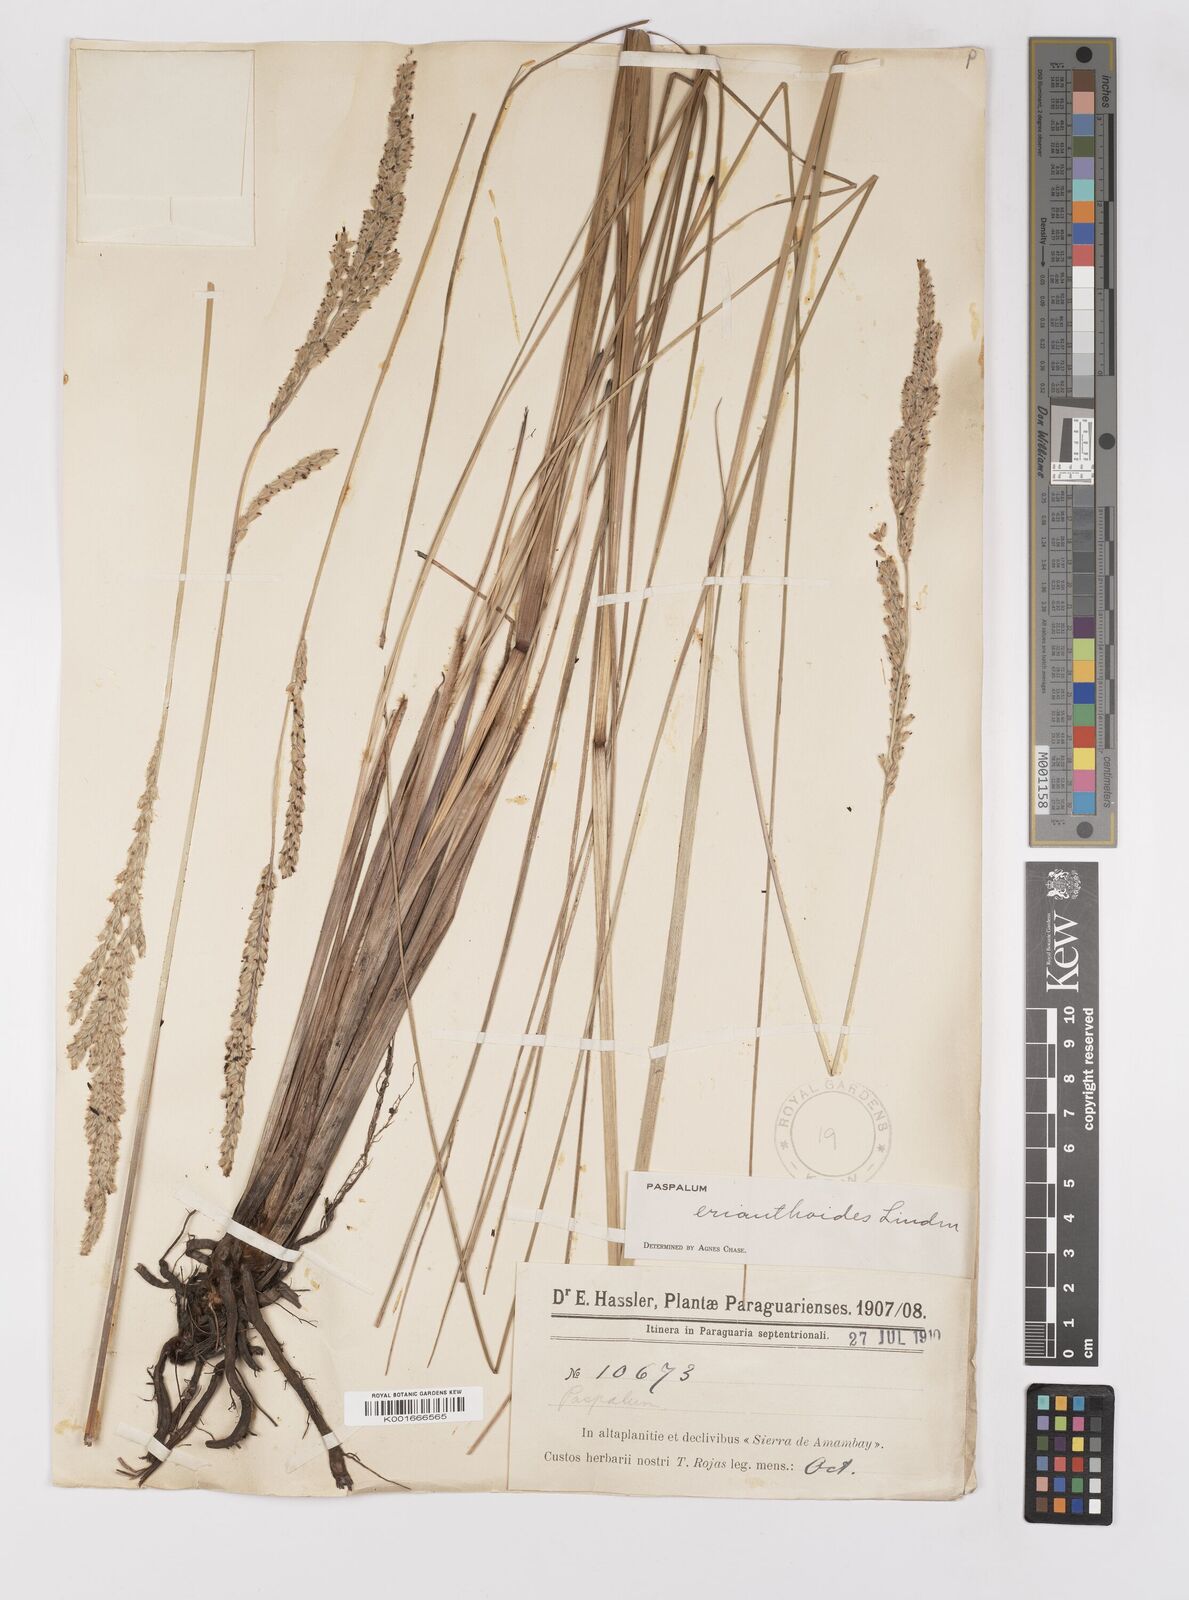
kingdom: Plantae
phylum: Tracheophyta
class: Liliopsida
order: Poales
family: Poaceae
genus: Paspalum
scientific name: Paspalum erianthoides
